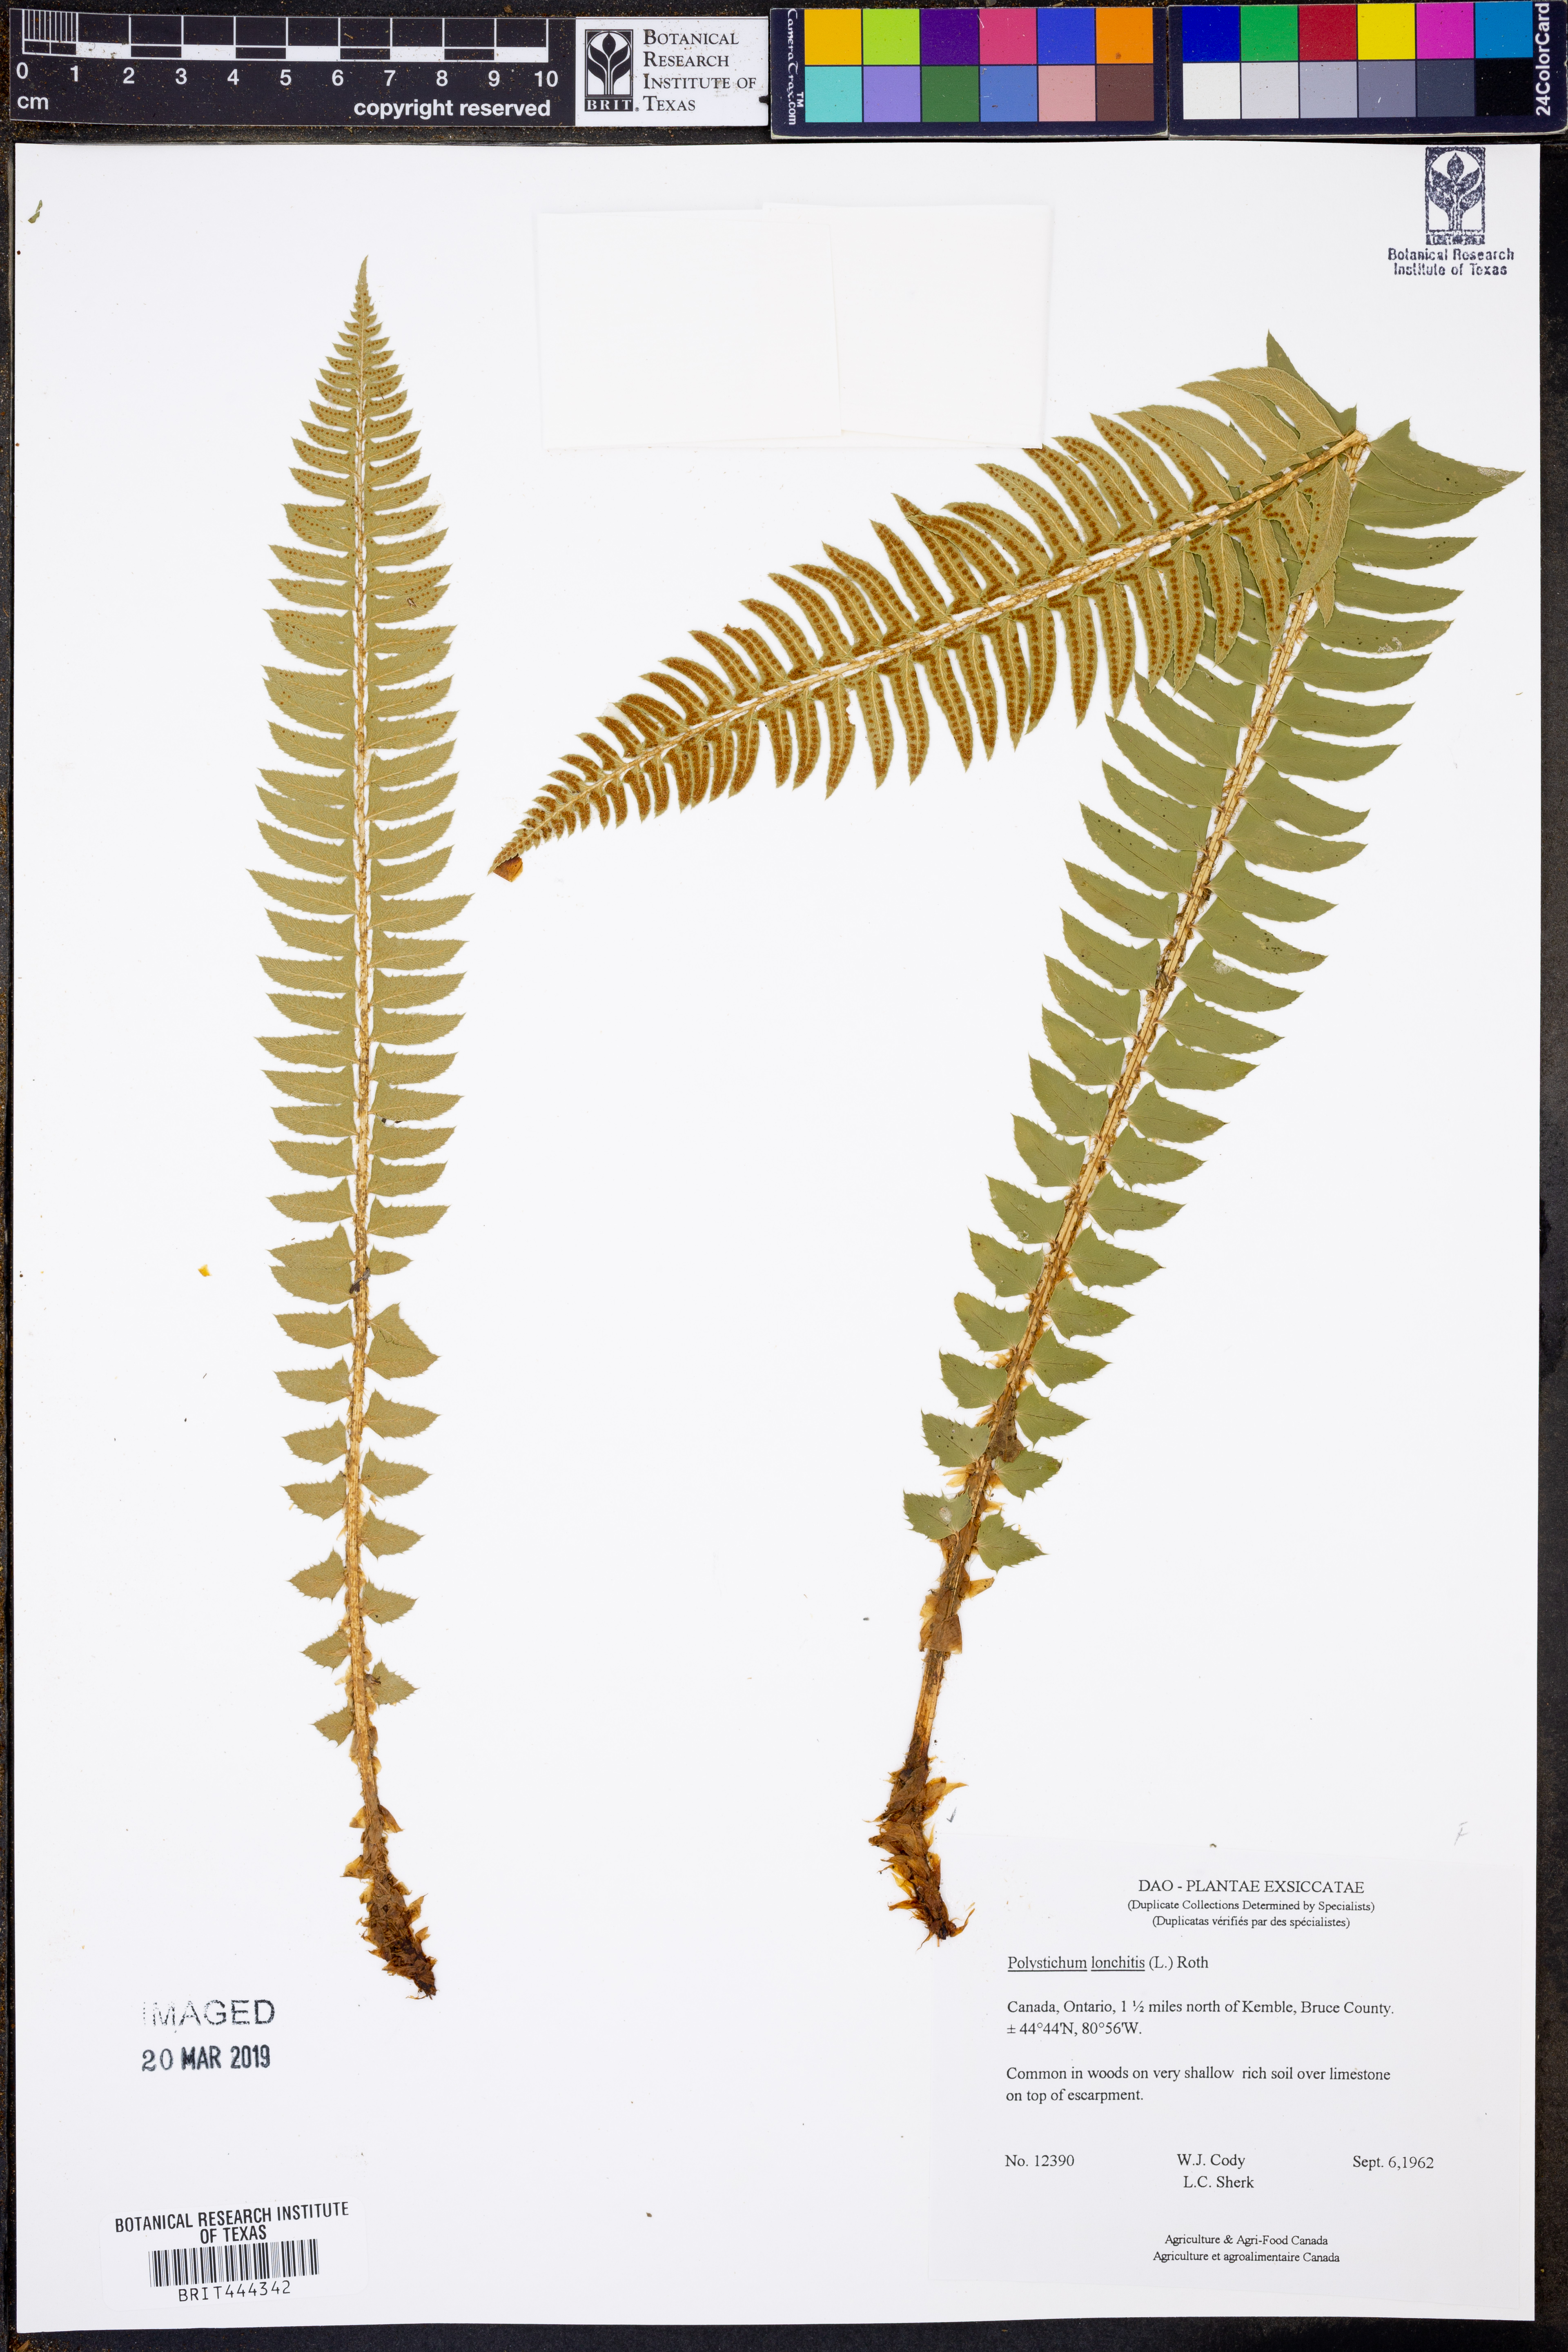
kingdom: Plantae
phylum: Tracheophyta
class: Polypodiopsida
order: Polypodiales
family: Dryopteridaceae
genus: Polystichum
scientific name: Polystichum lonchitis
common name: Holly fern
